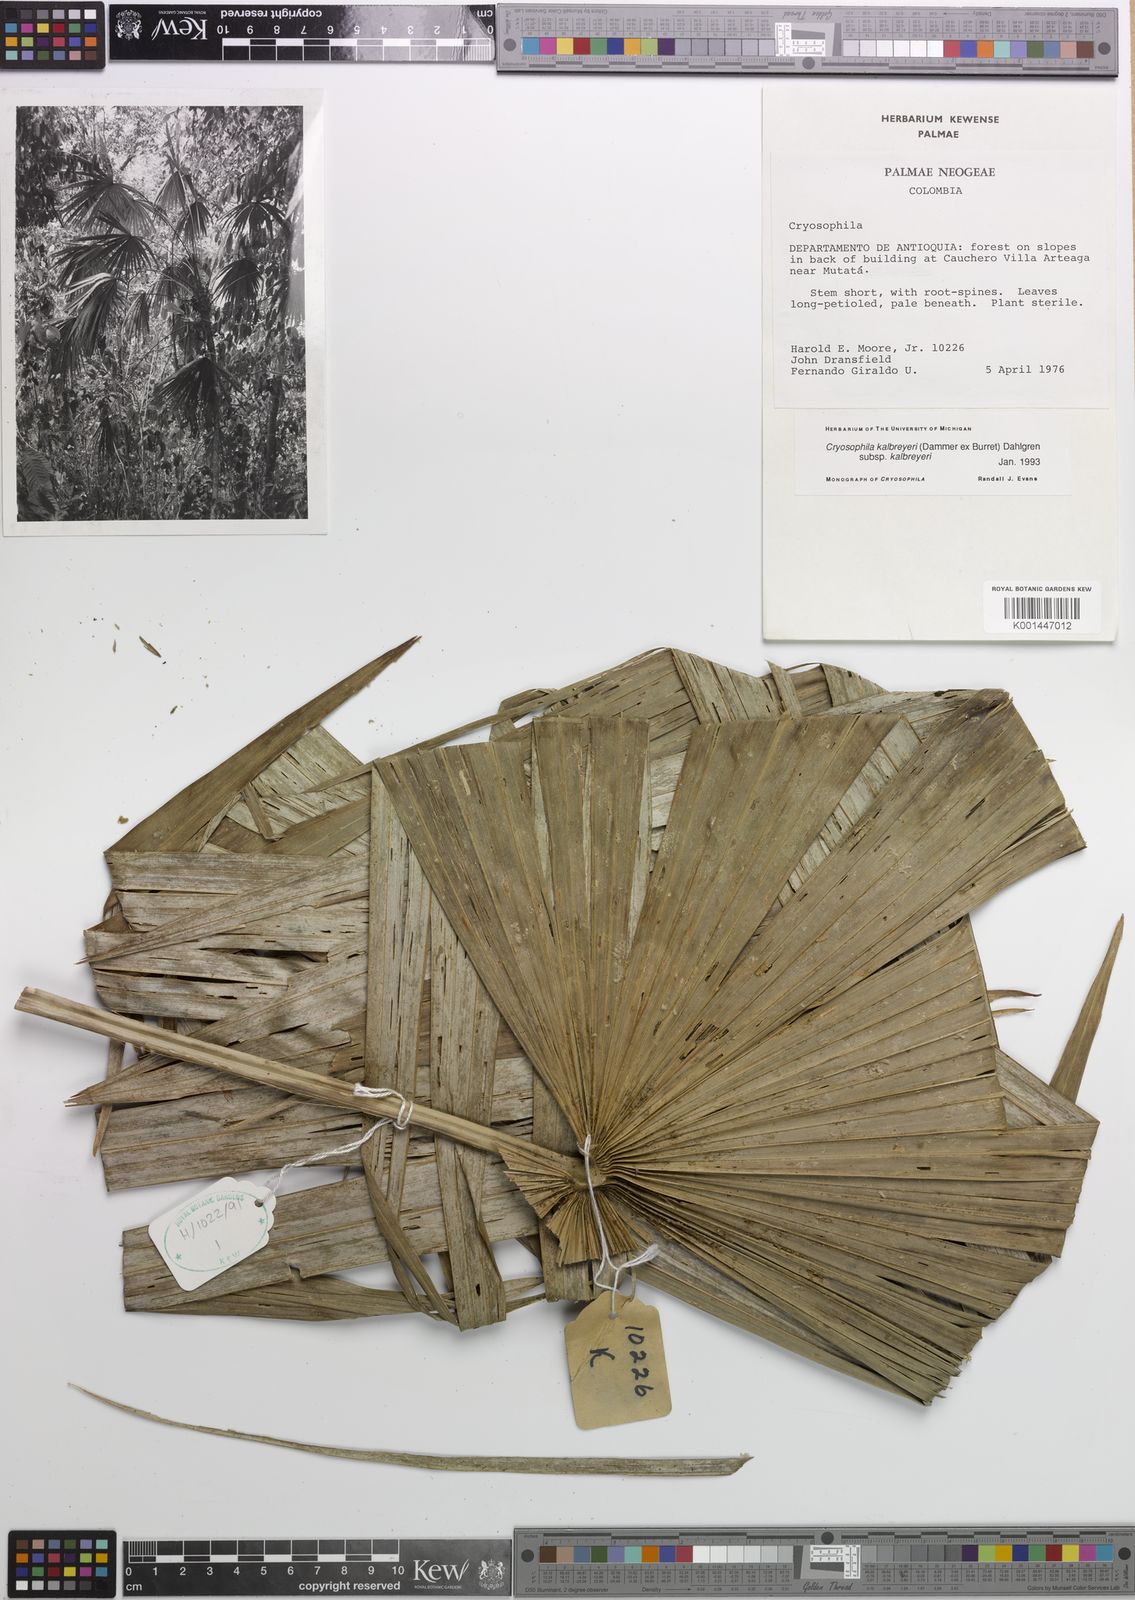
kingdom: Plantae
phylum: Tracheophyta
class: Liliopsida
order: Arecales
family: Arecaceae
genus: Cryosophila
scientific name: Cryosophila kalbreyeri
